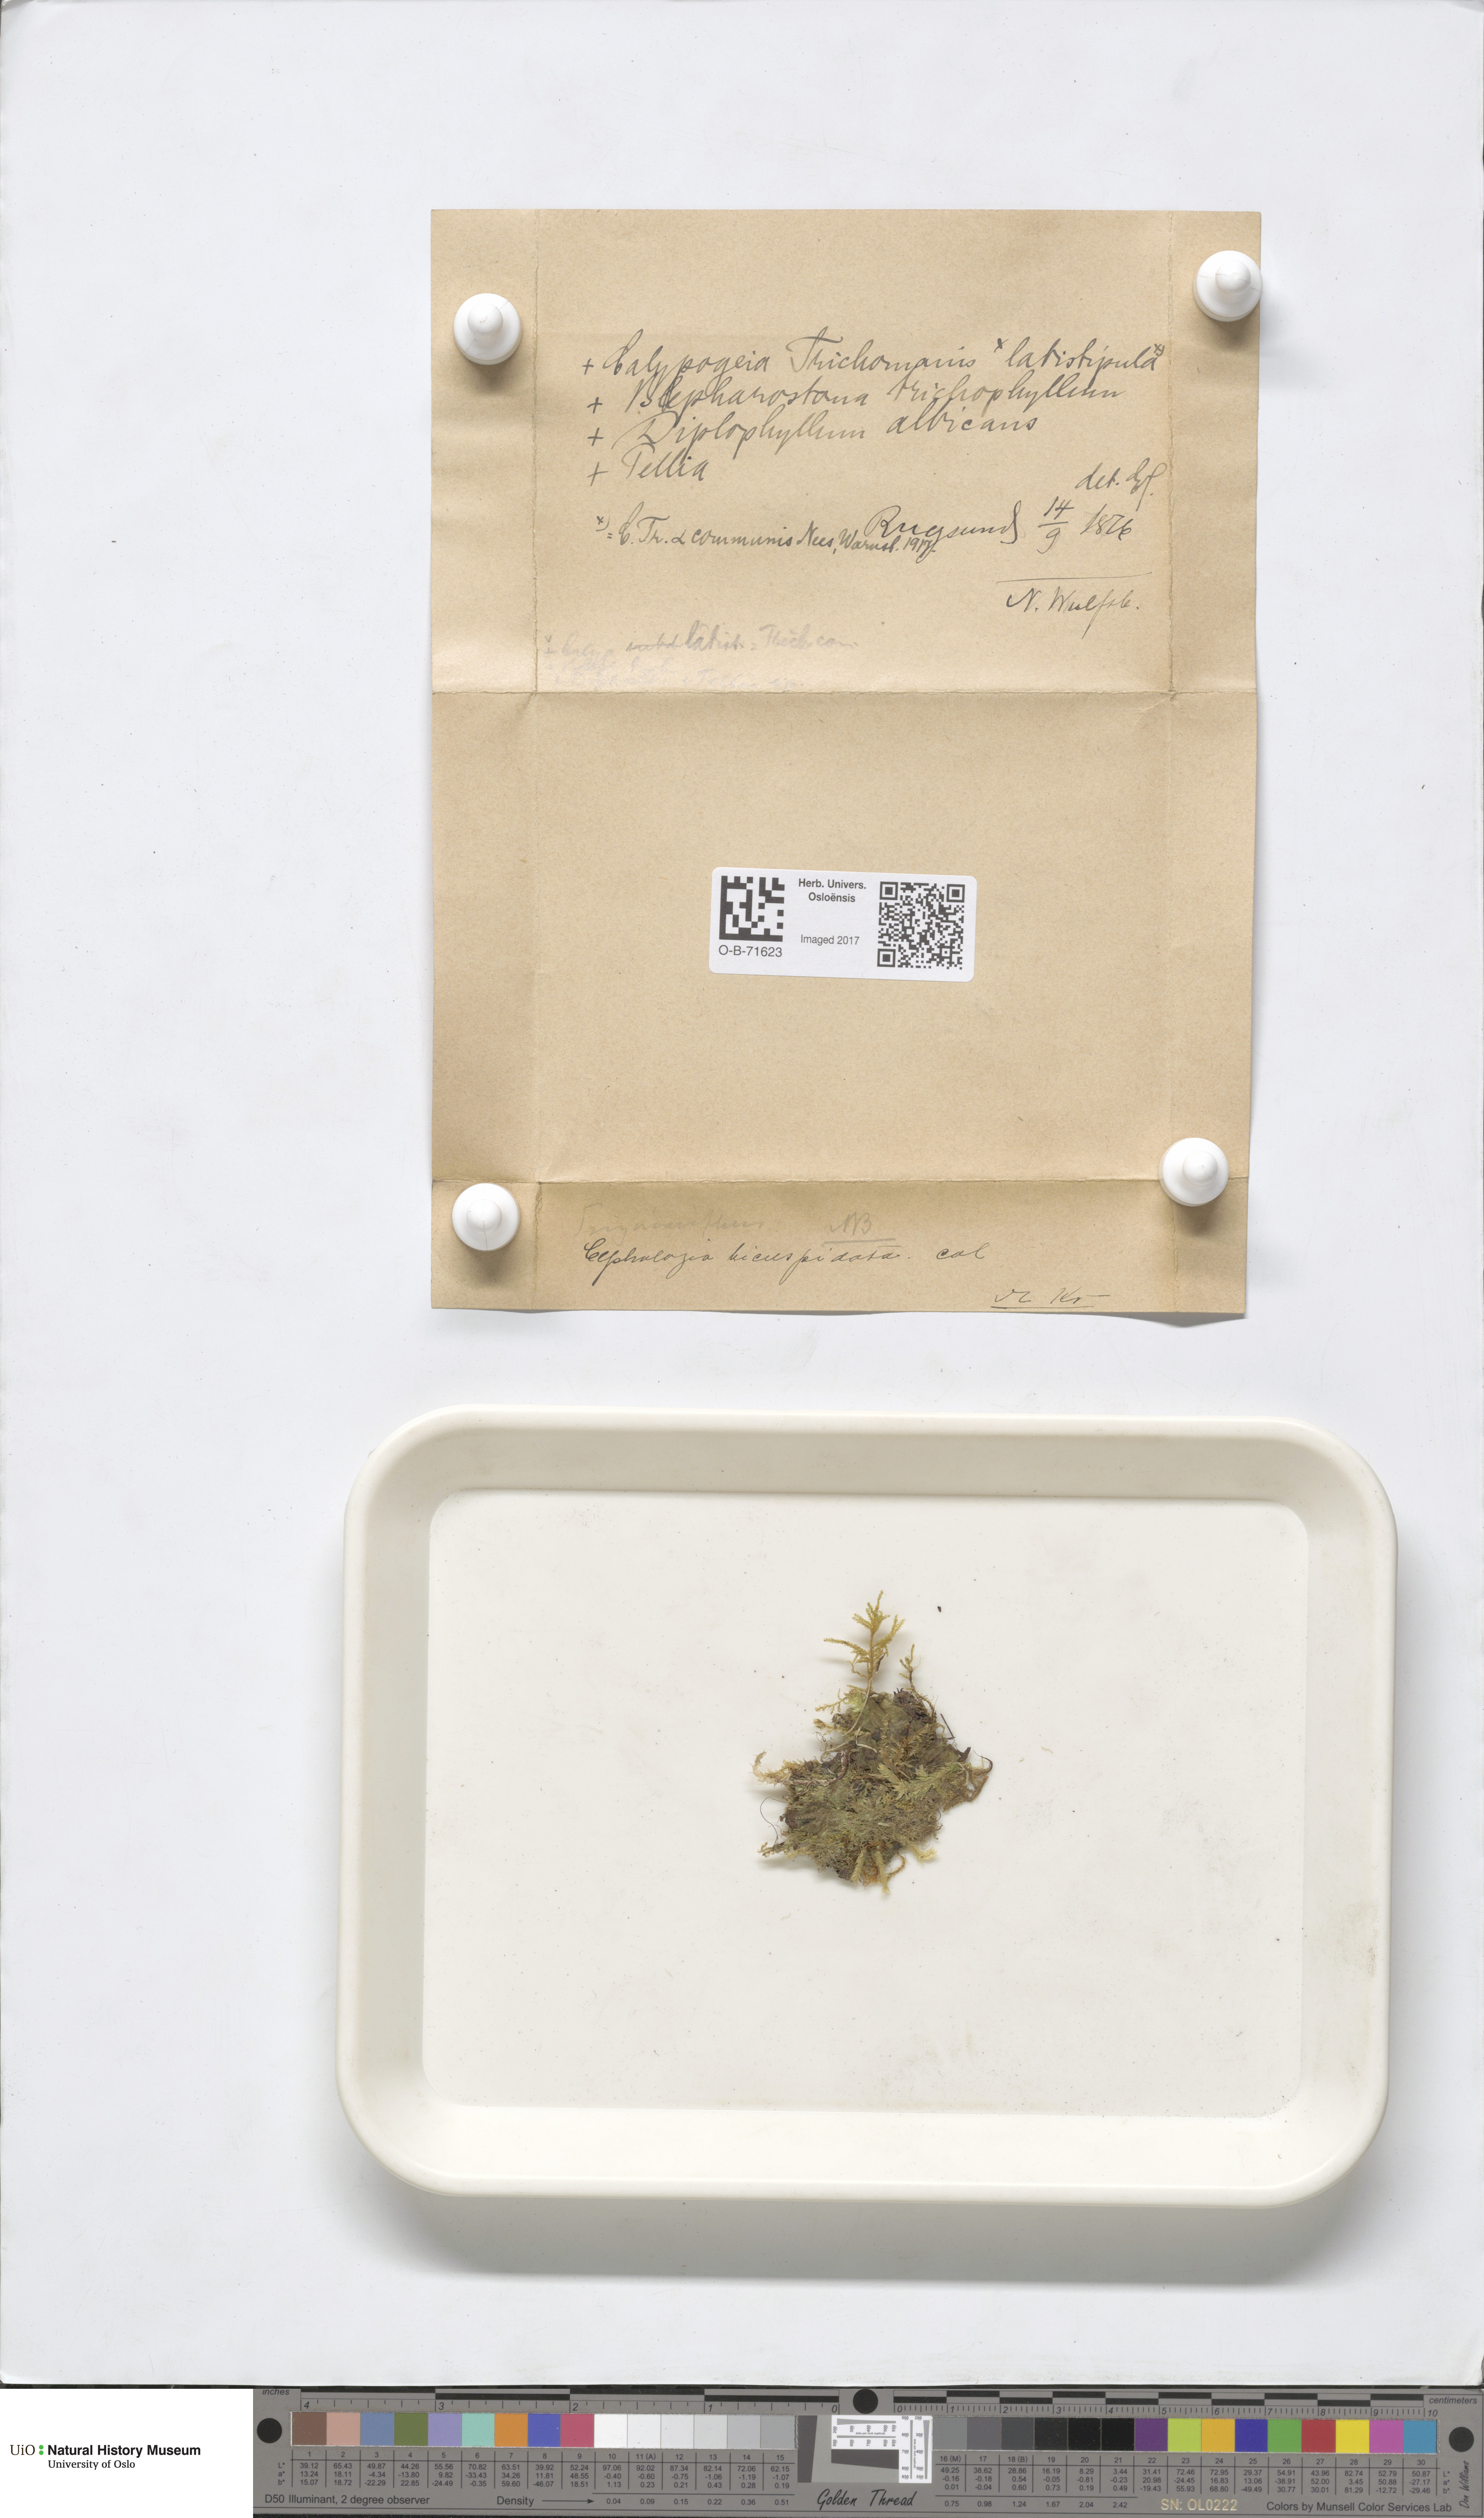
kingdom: Plantae
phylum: Marchantiophyta
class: Jungermanniopsida
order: Jungermanniales
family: Cephaloziaceae
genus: Cephalozia
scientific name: Cephalozia bicuspidata
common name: Two-horned pincerwort
